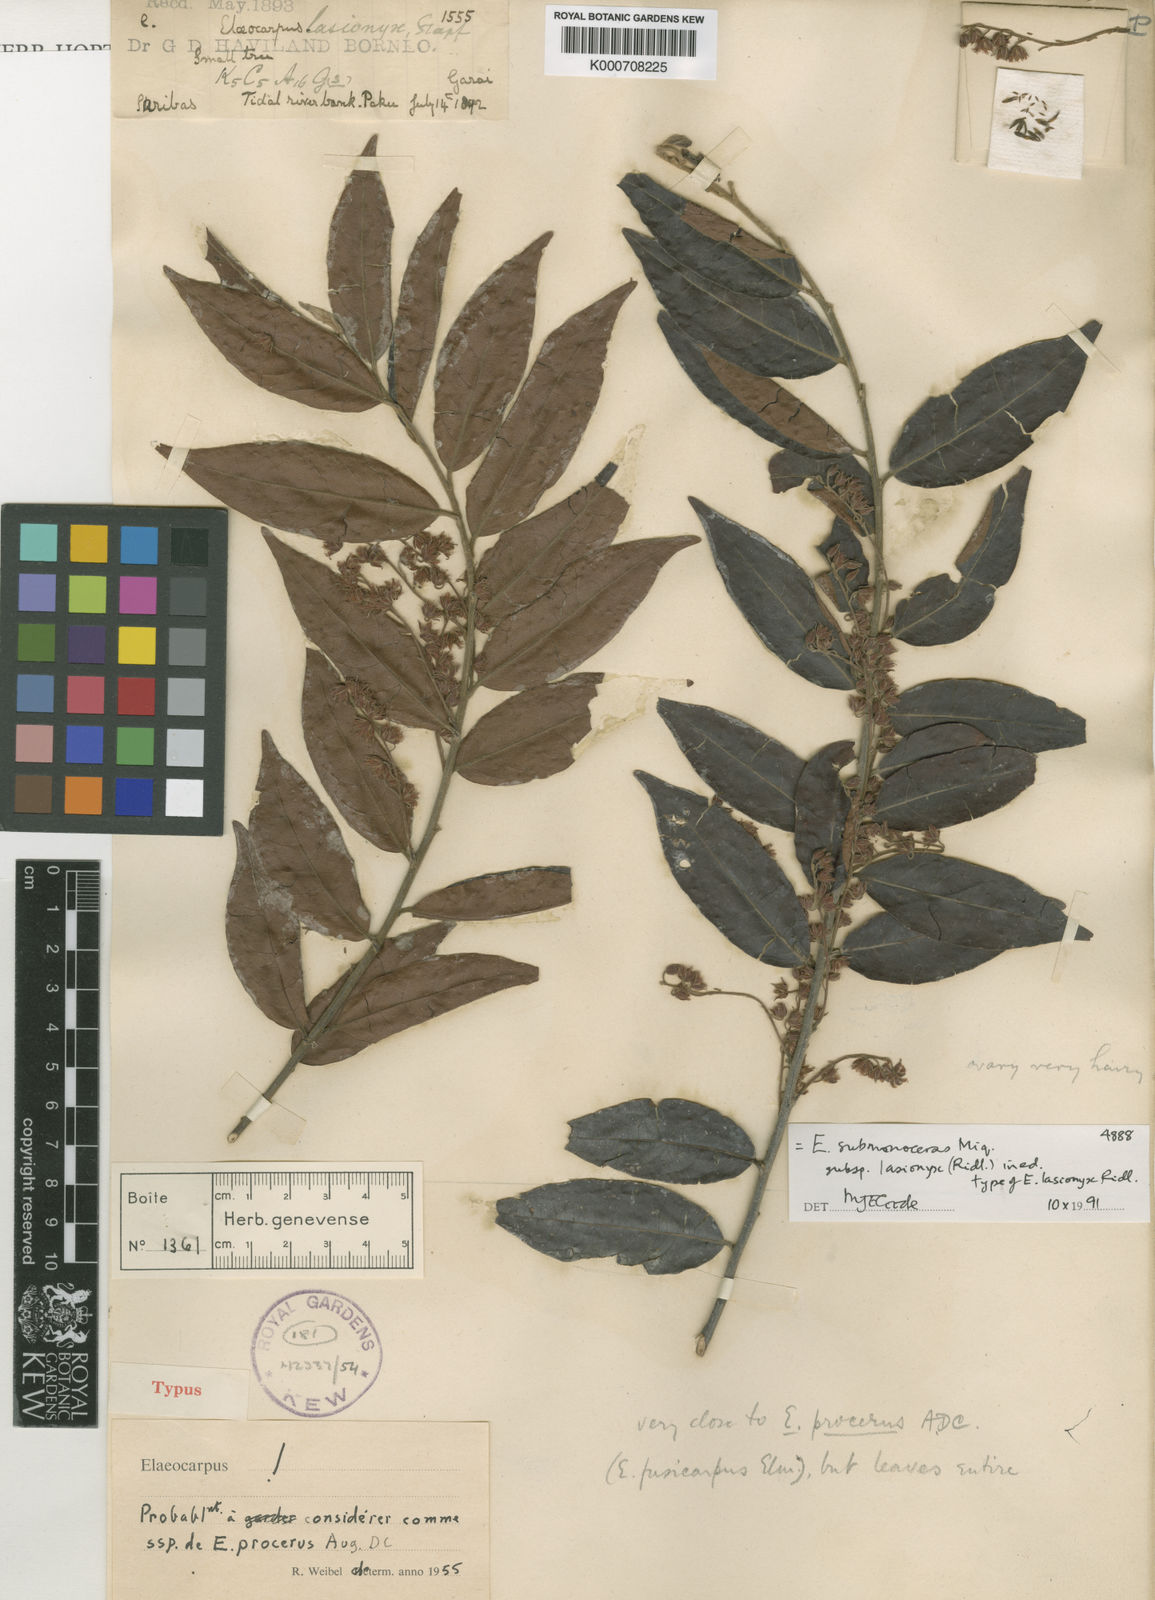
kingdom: Plantae
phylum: Tracheophyta
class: Magnoliopsida
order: Oxalidales
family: Elaeocarpaceae
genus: Elaeocarpus
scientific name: Elaeocarpus submonoceras
